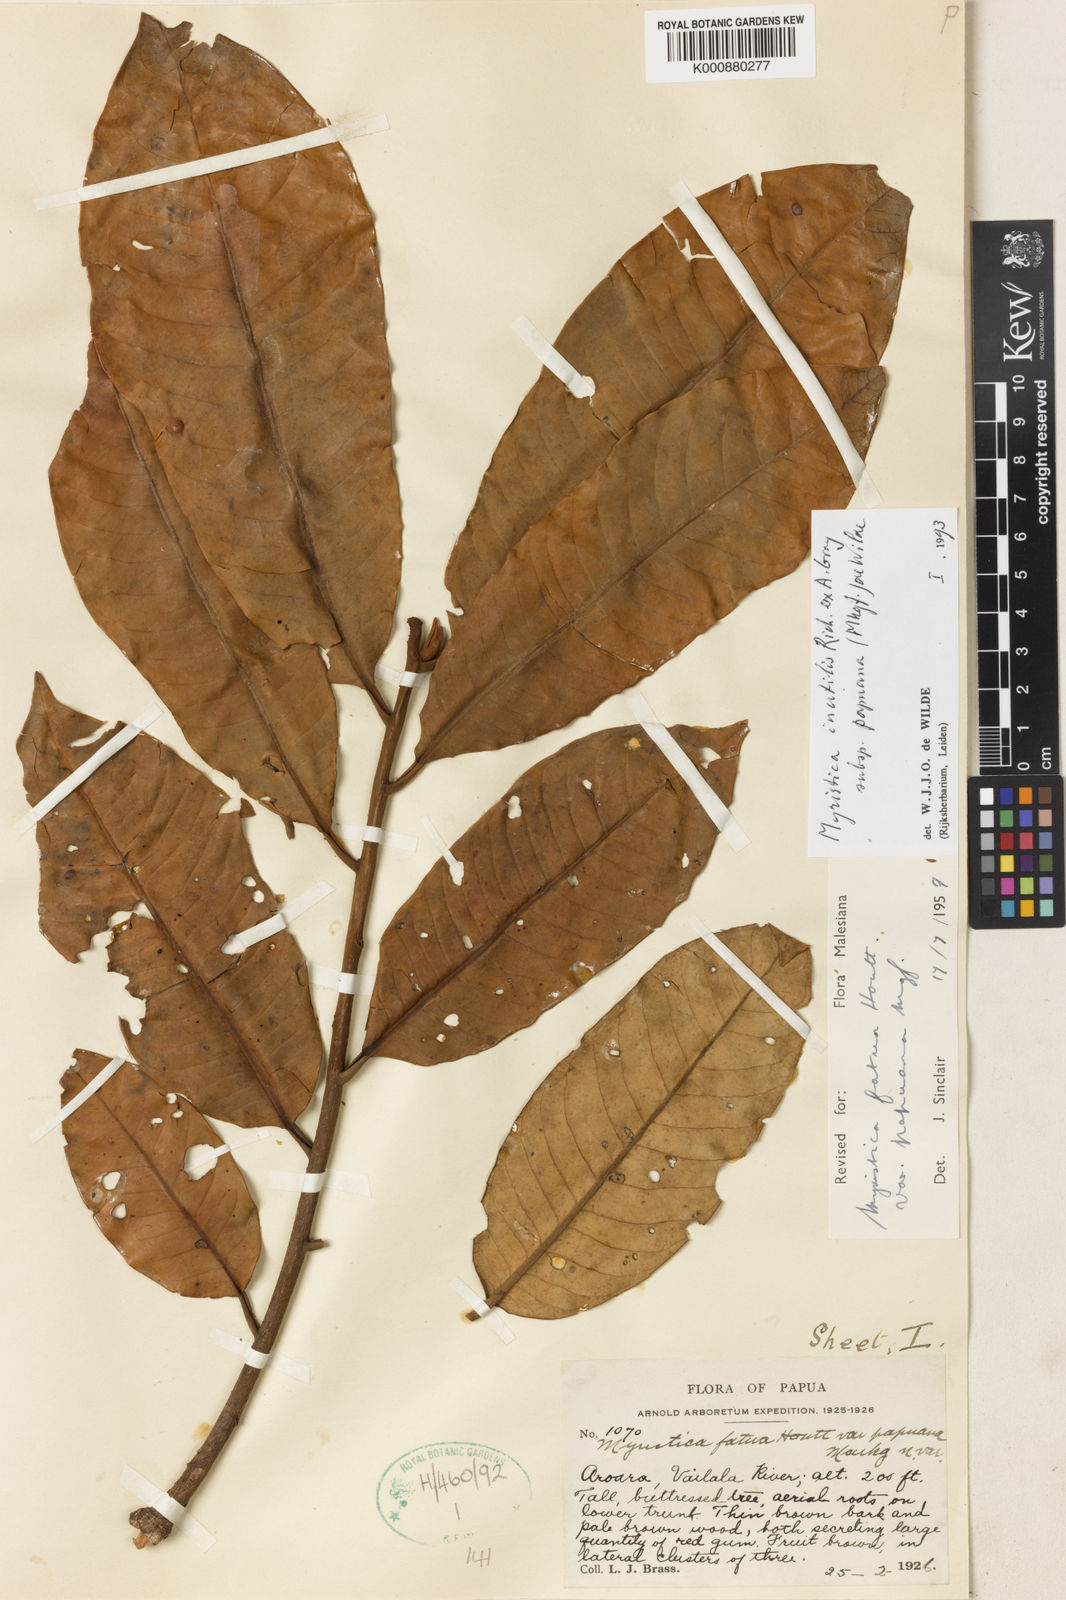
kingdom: Plantae
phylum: Tracheophyta
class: Magnoliopsida
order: Magnoliales
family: Myristicaceae
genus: Myristica
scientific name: Myristica fatua
